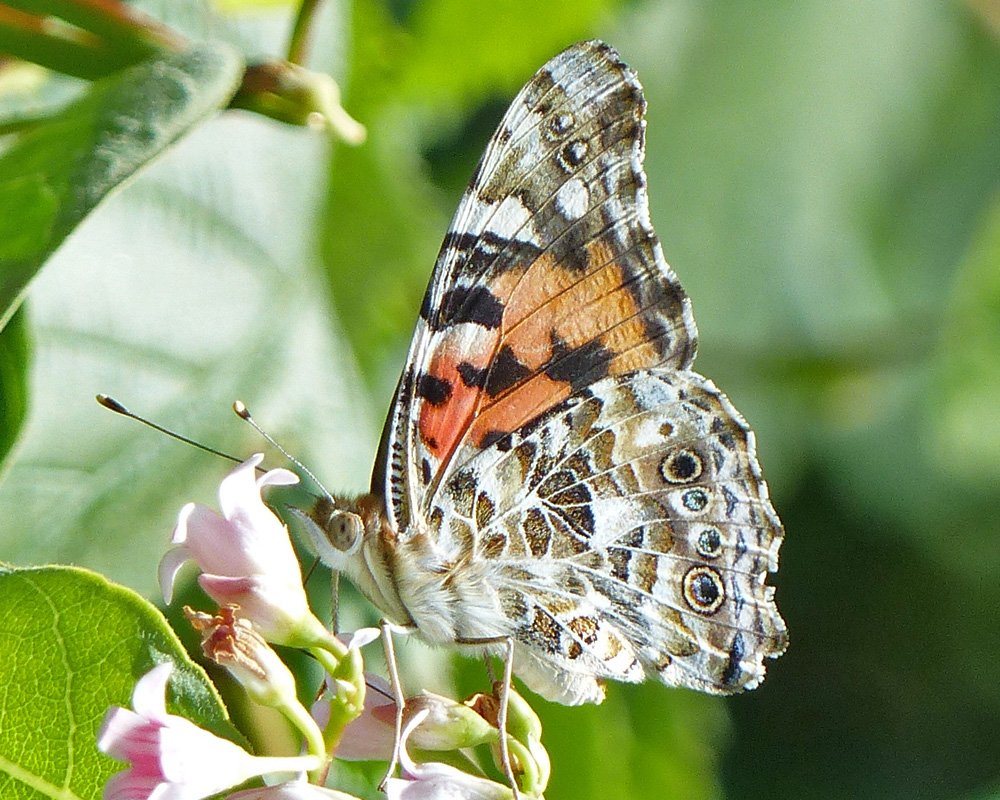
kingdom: Animalia
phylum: Arthropoda
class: Insecta
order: Lepidoptera
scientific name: Lepidoptera
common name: Butterflies
